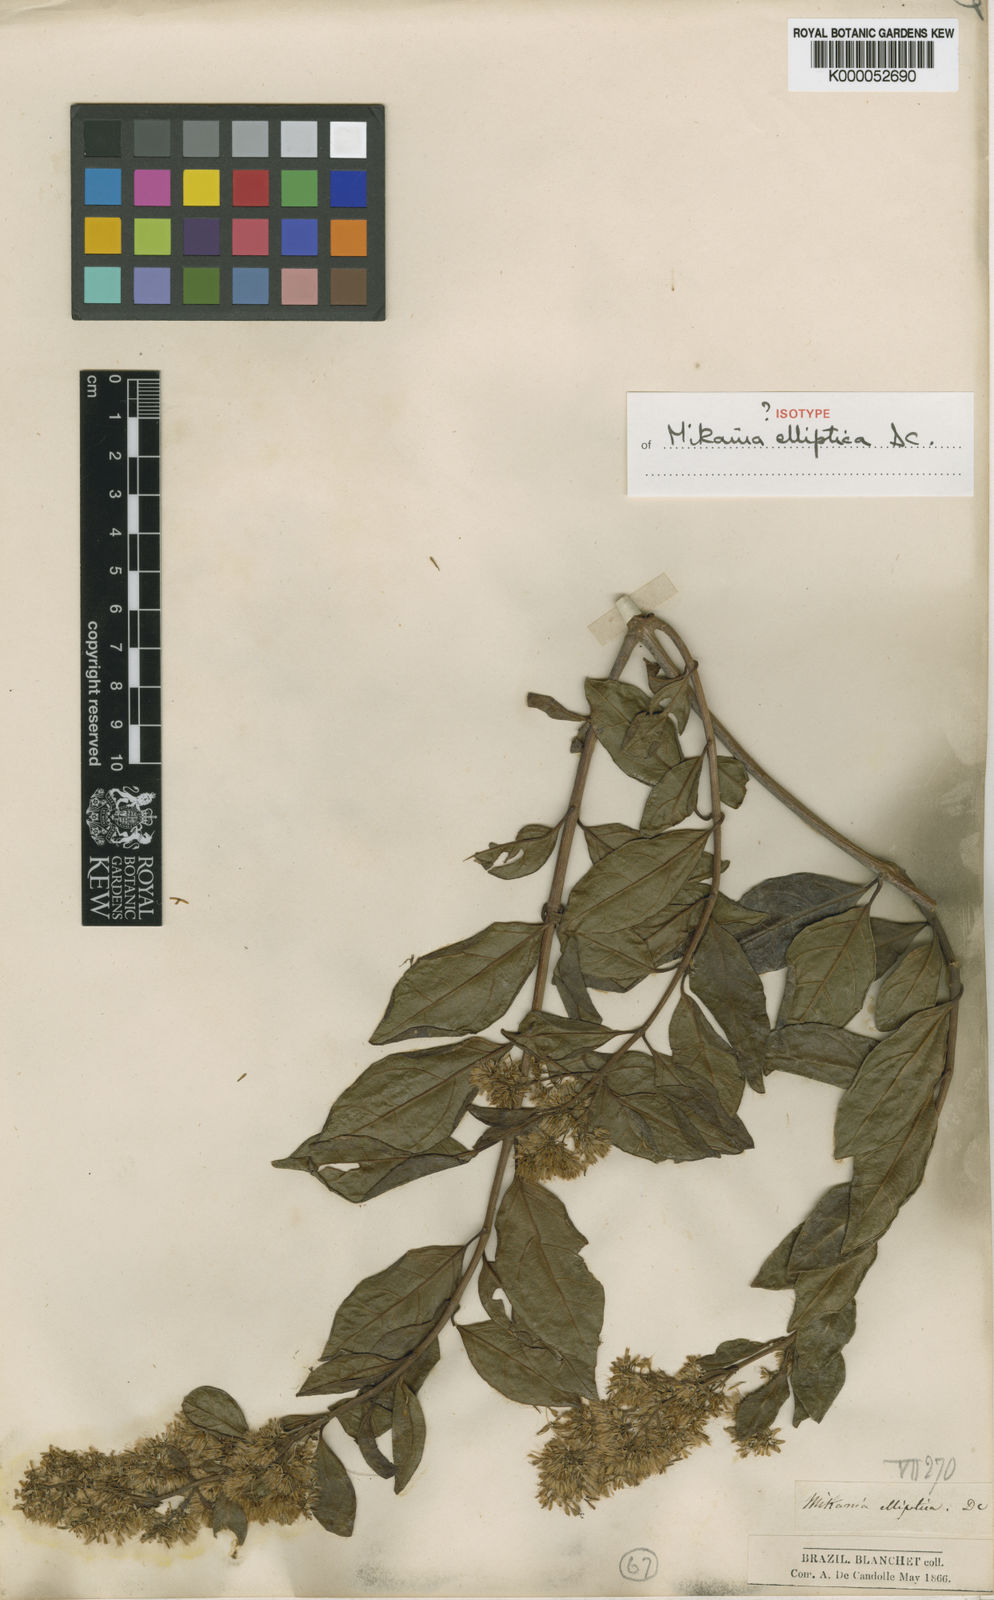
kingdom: Plantae
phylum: Tracheophyta
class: Magnoliopsida
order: Asterales
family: Asteraceae
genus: Mikania
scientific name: Mikania elliptica
